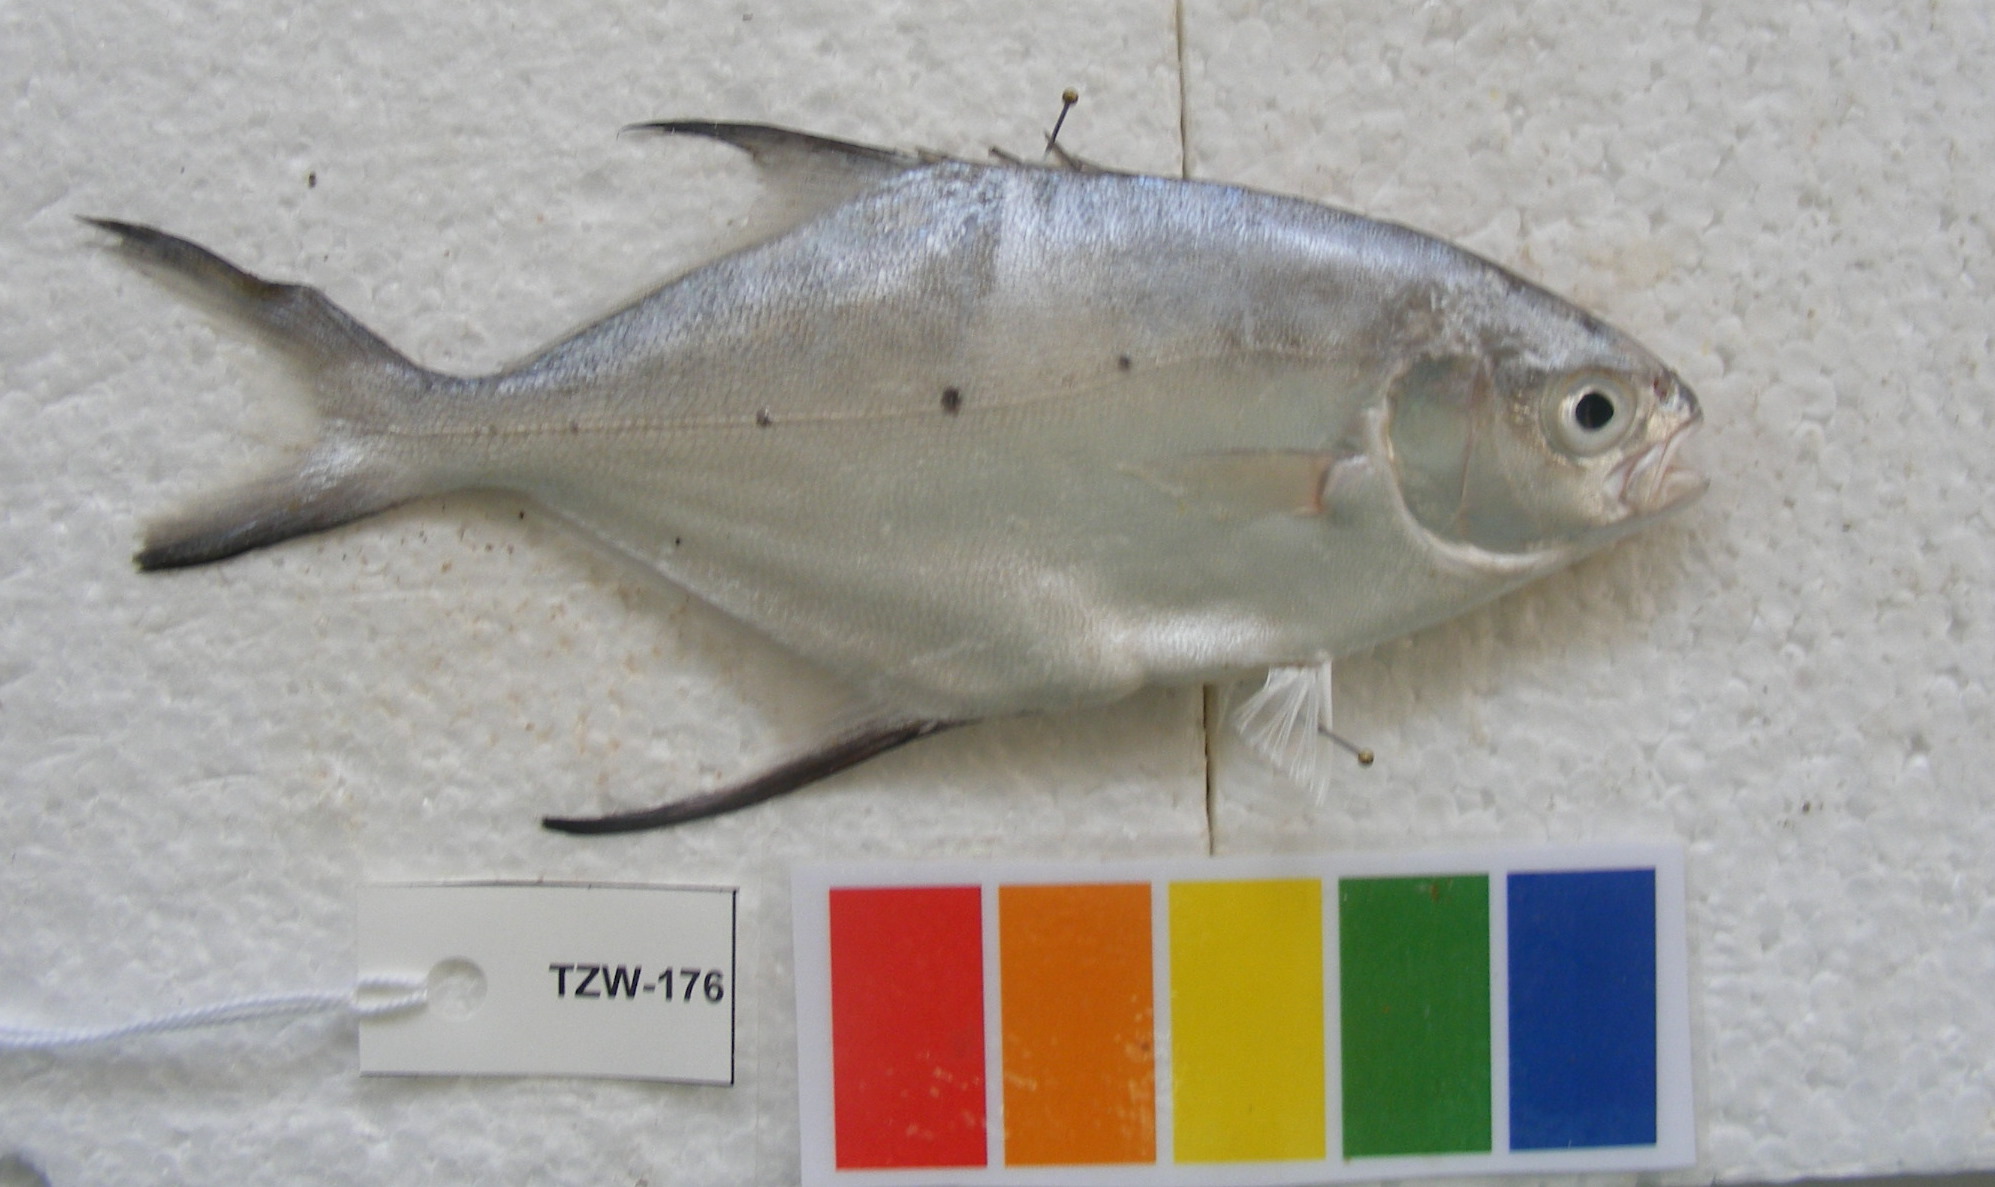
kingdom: Animalia
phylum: Chordata
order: Perciformes
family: Carangidae
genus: Trachinotus
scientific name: Trachinotus baillonii
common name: Smallspotted dart
